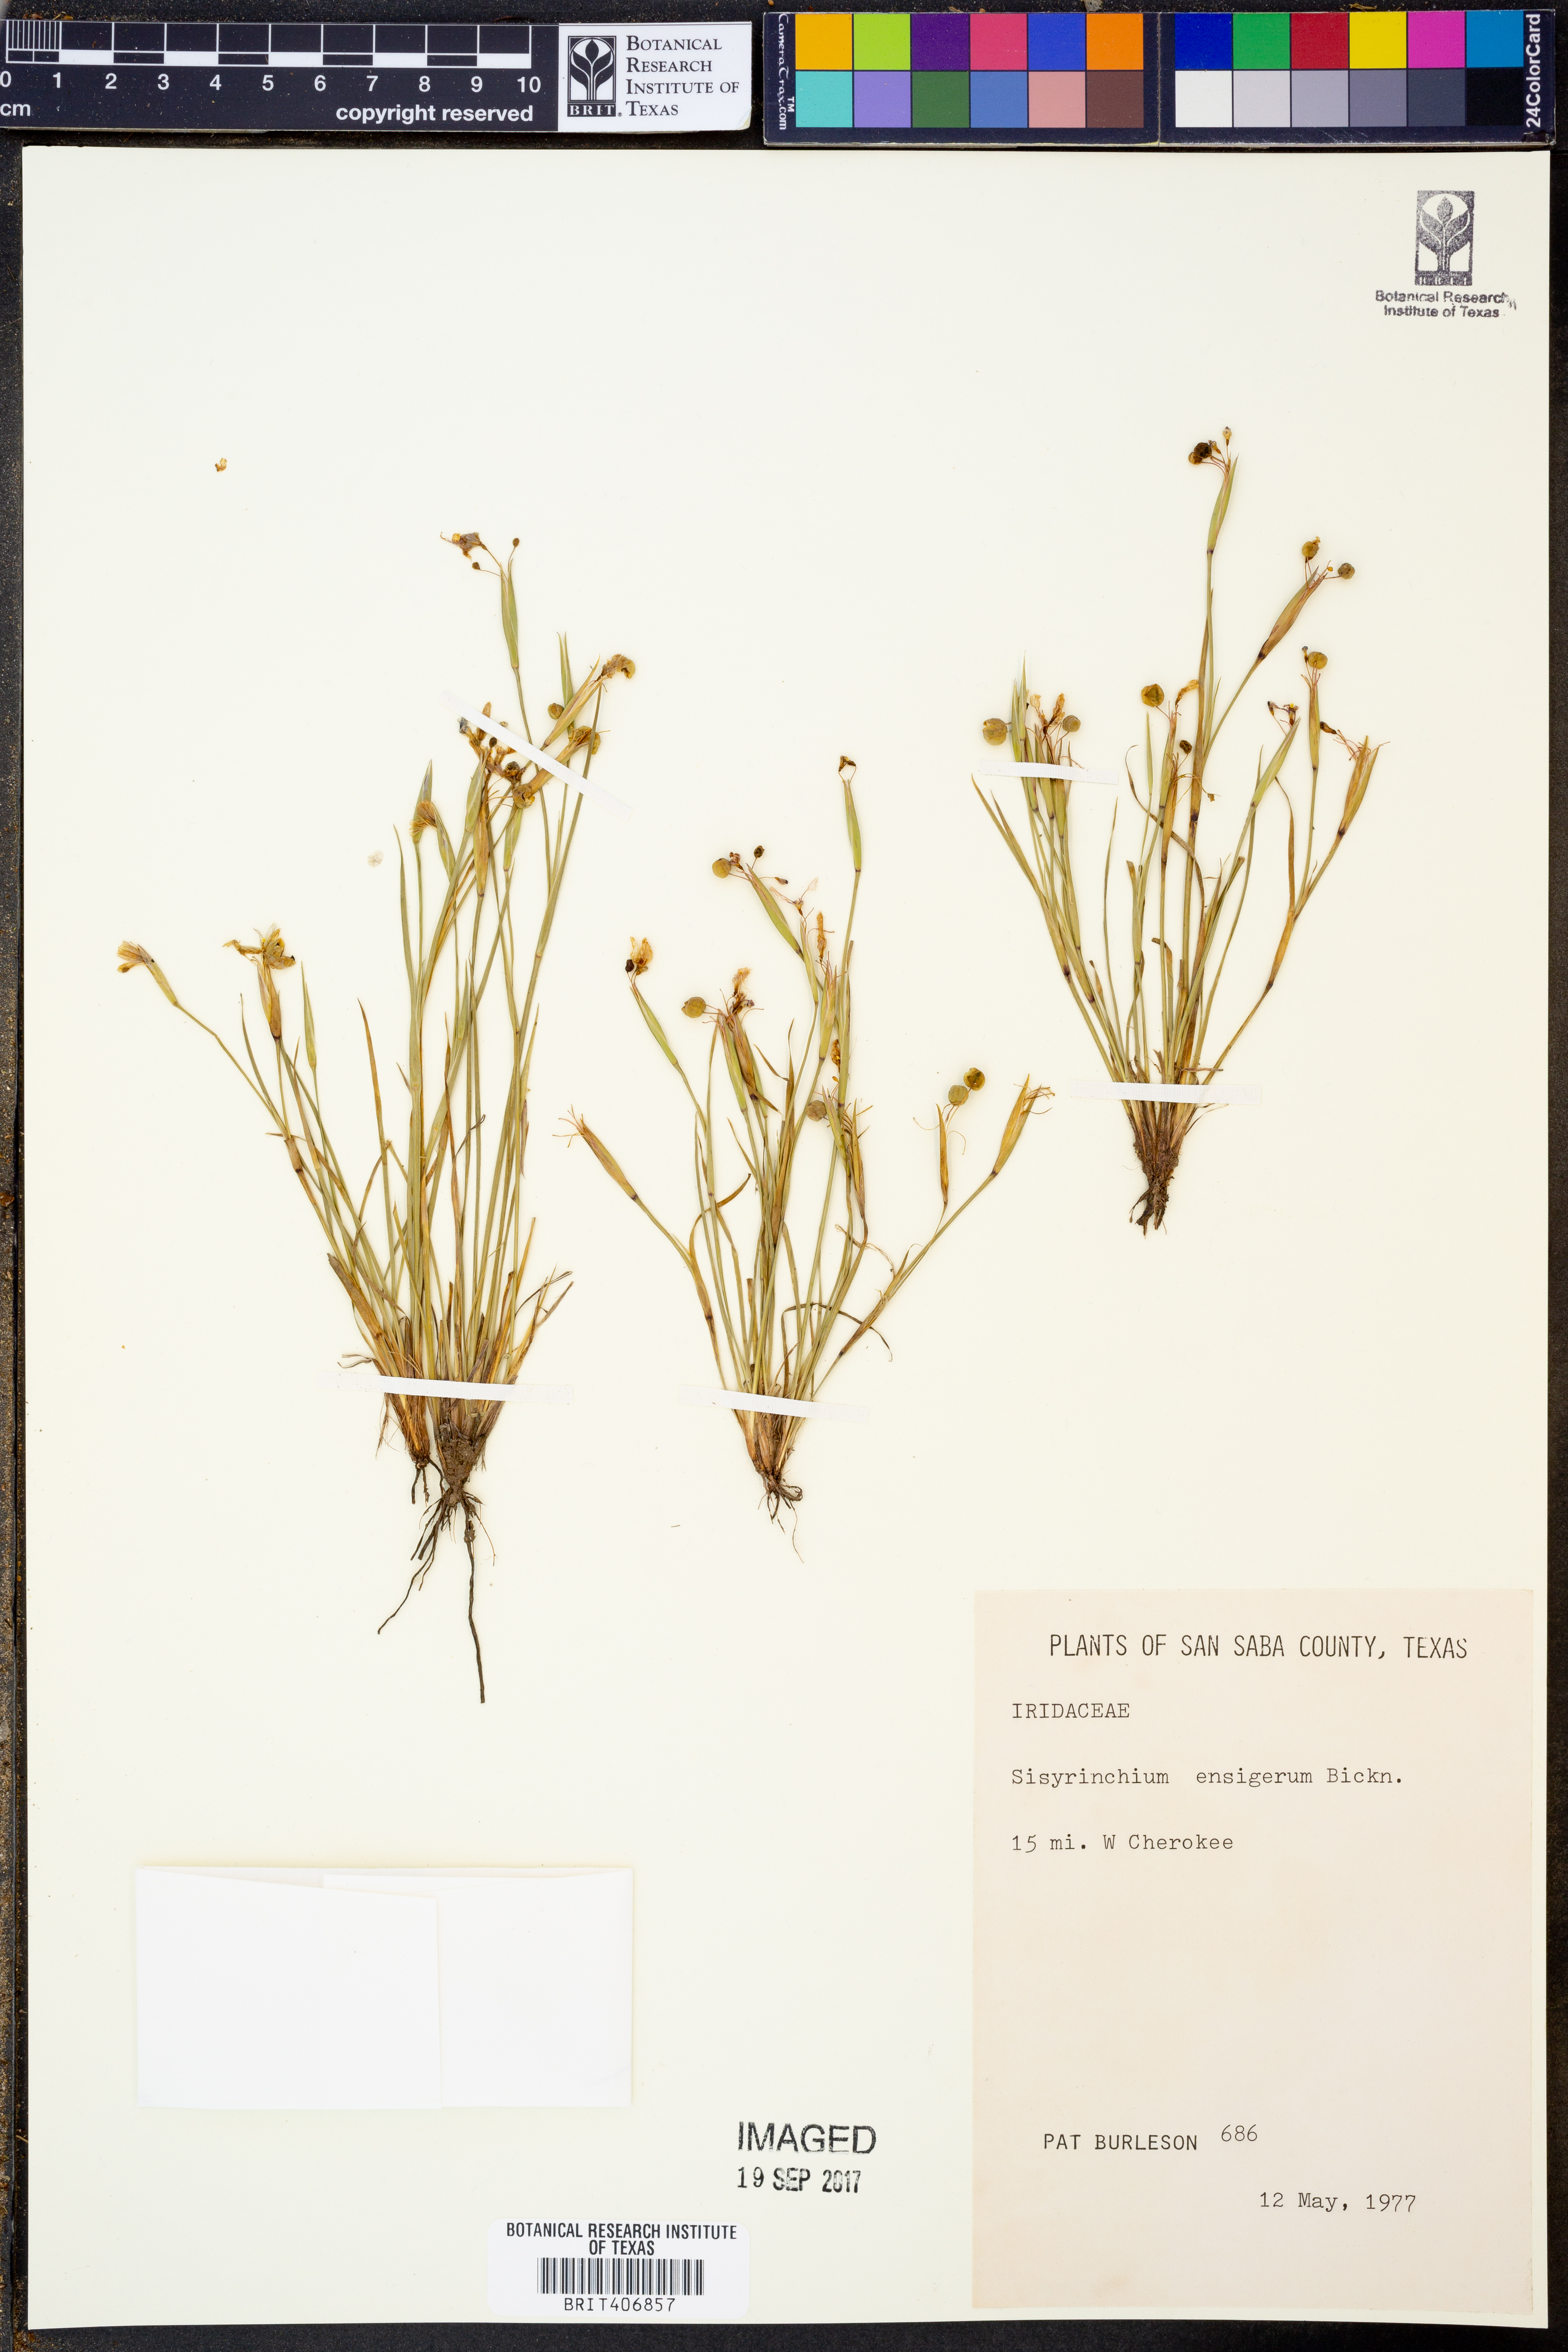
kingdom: Plantae
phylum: Tracheophyta
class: Liliopsida
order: Asparagales
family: Iridaceae
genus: Sisyrinchium
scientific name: Sisyrinchium ensigerum
